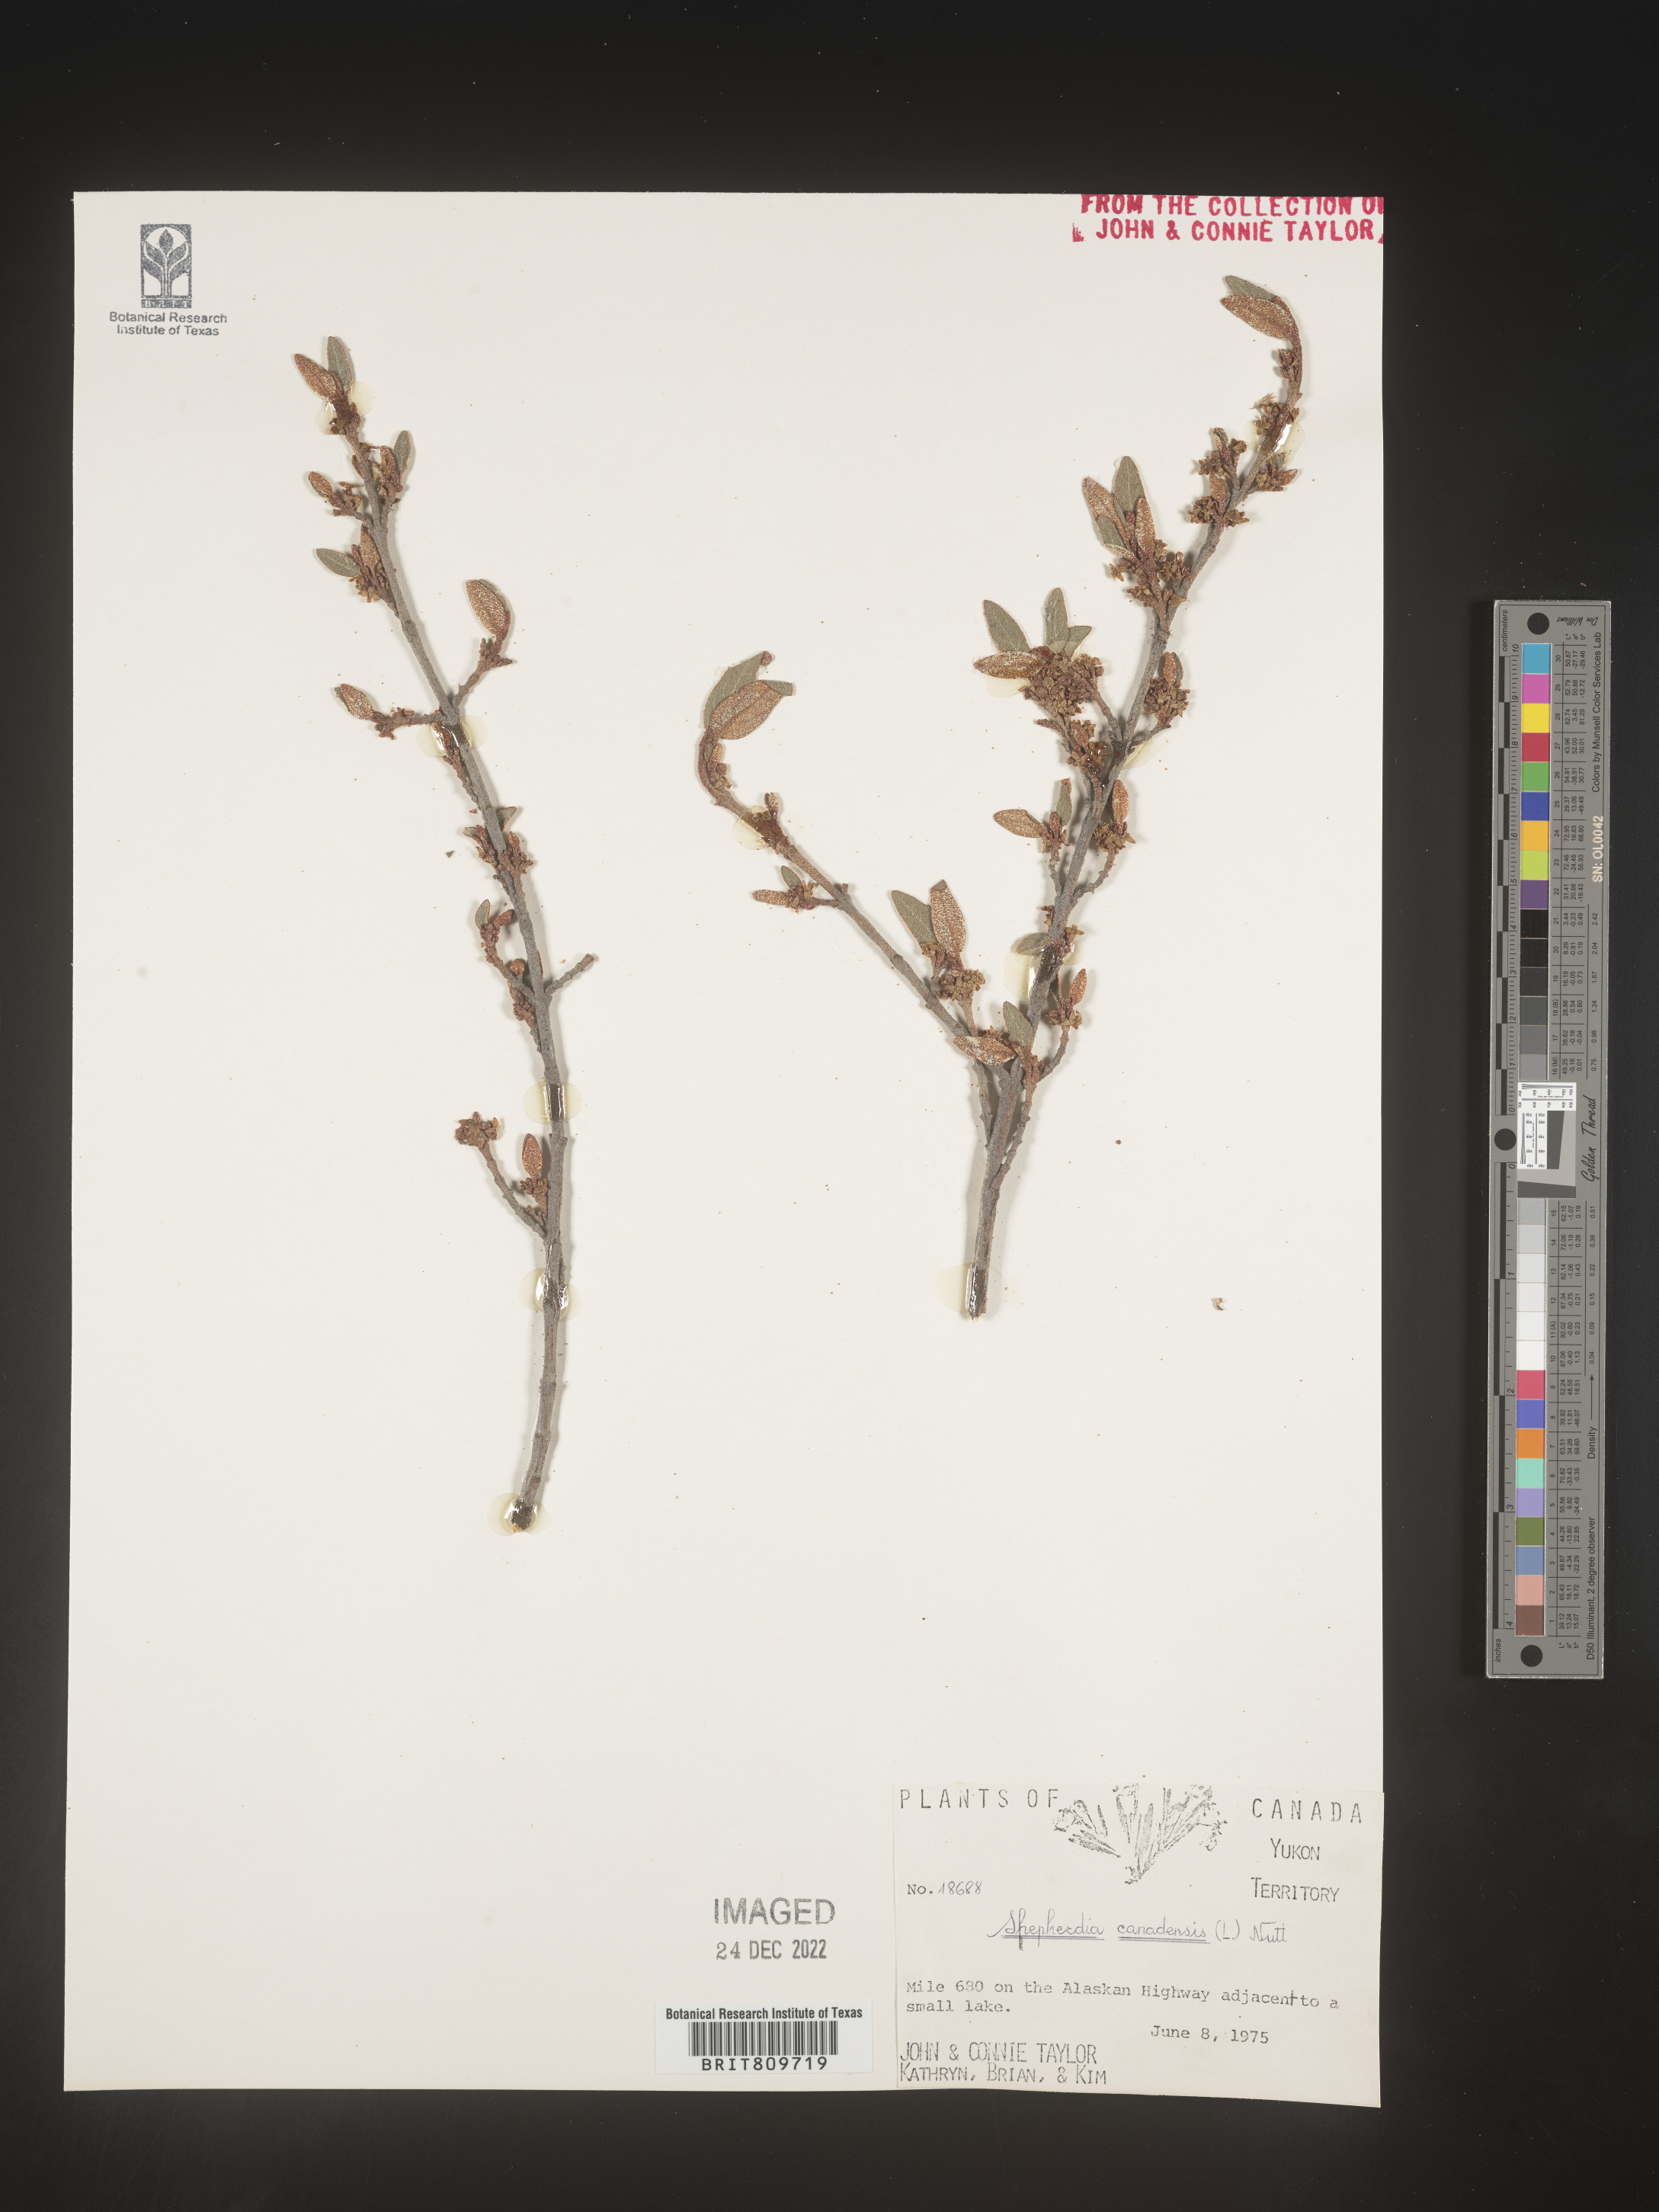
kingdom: Plantae
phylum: Tracheophyta
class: Magnoliopsida
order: Rosales
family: Elaeagnaceae
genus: Shepherdia
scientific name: Shepherdia canadensis
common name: Soapberry
